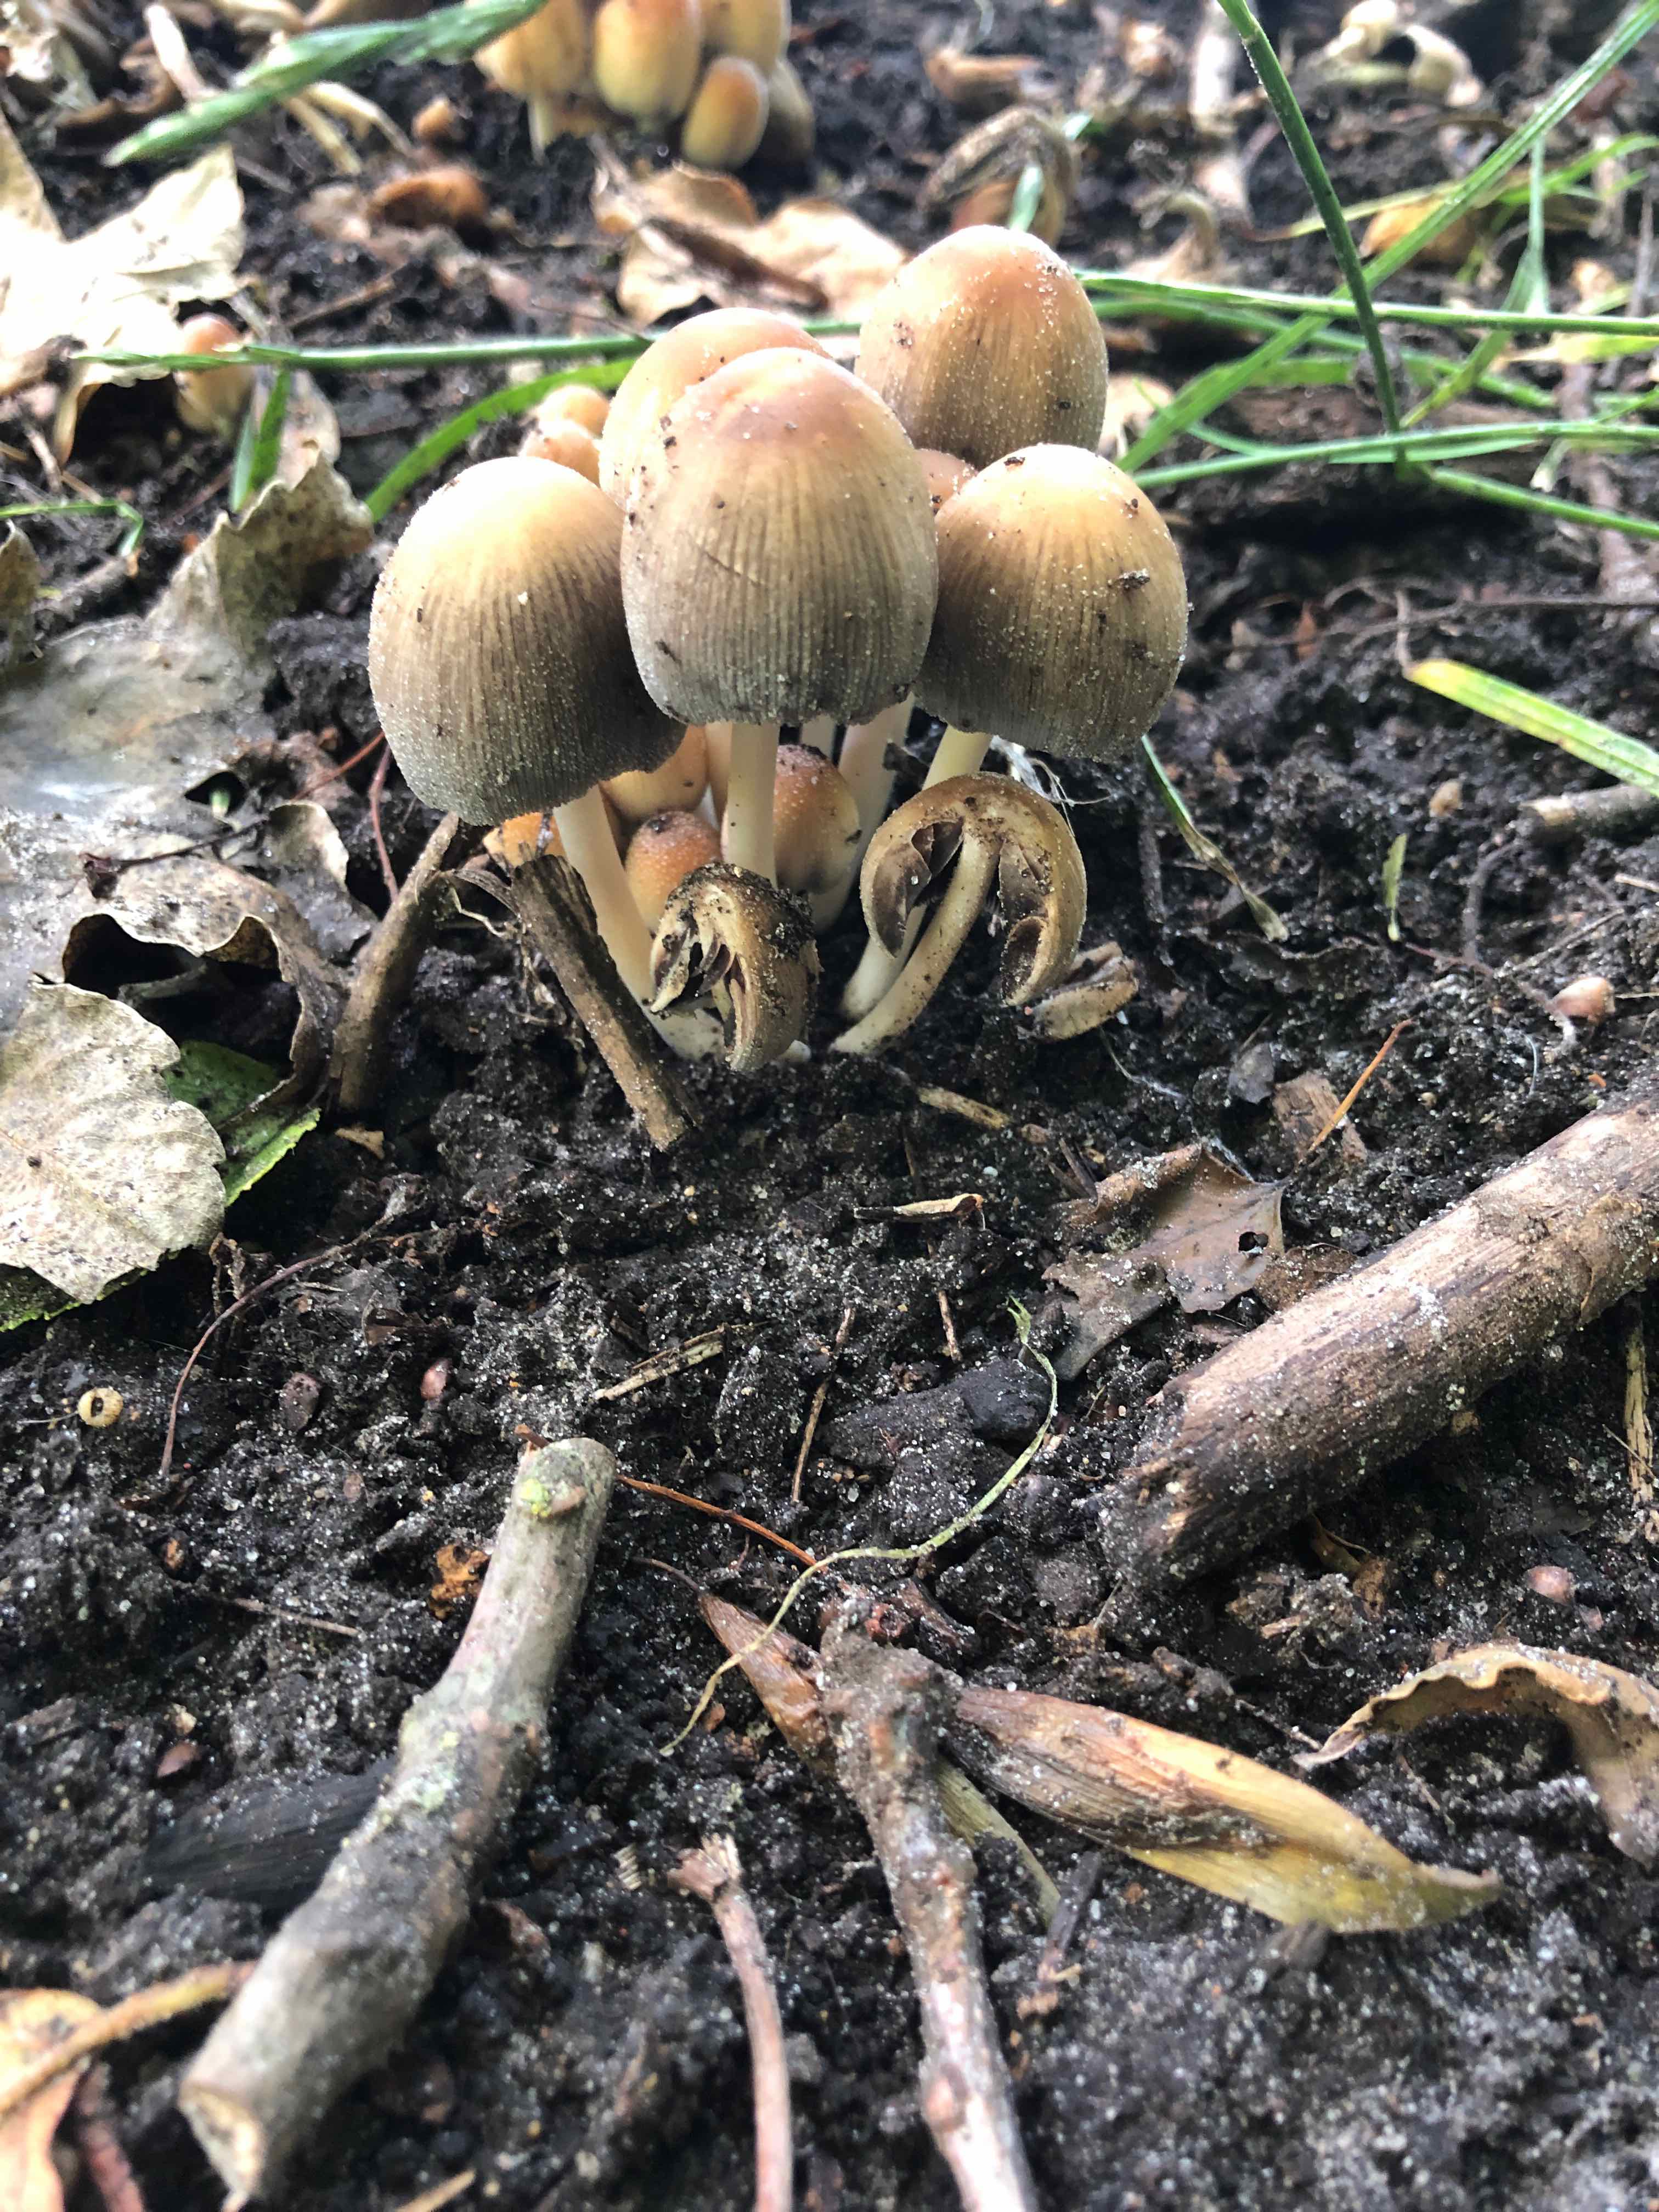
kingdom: Fungi
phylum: Basidiomycota
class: Agaricomycetes
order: Agaricales
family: Psathyrellaceae
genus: Coprinellus
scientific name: Coprinellus micaceus
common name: glimmer-blækhat
